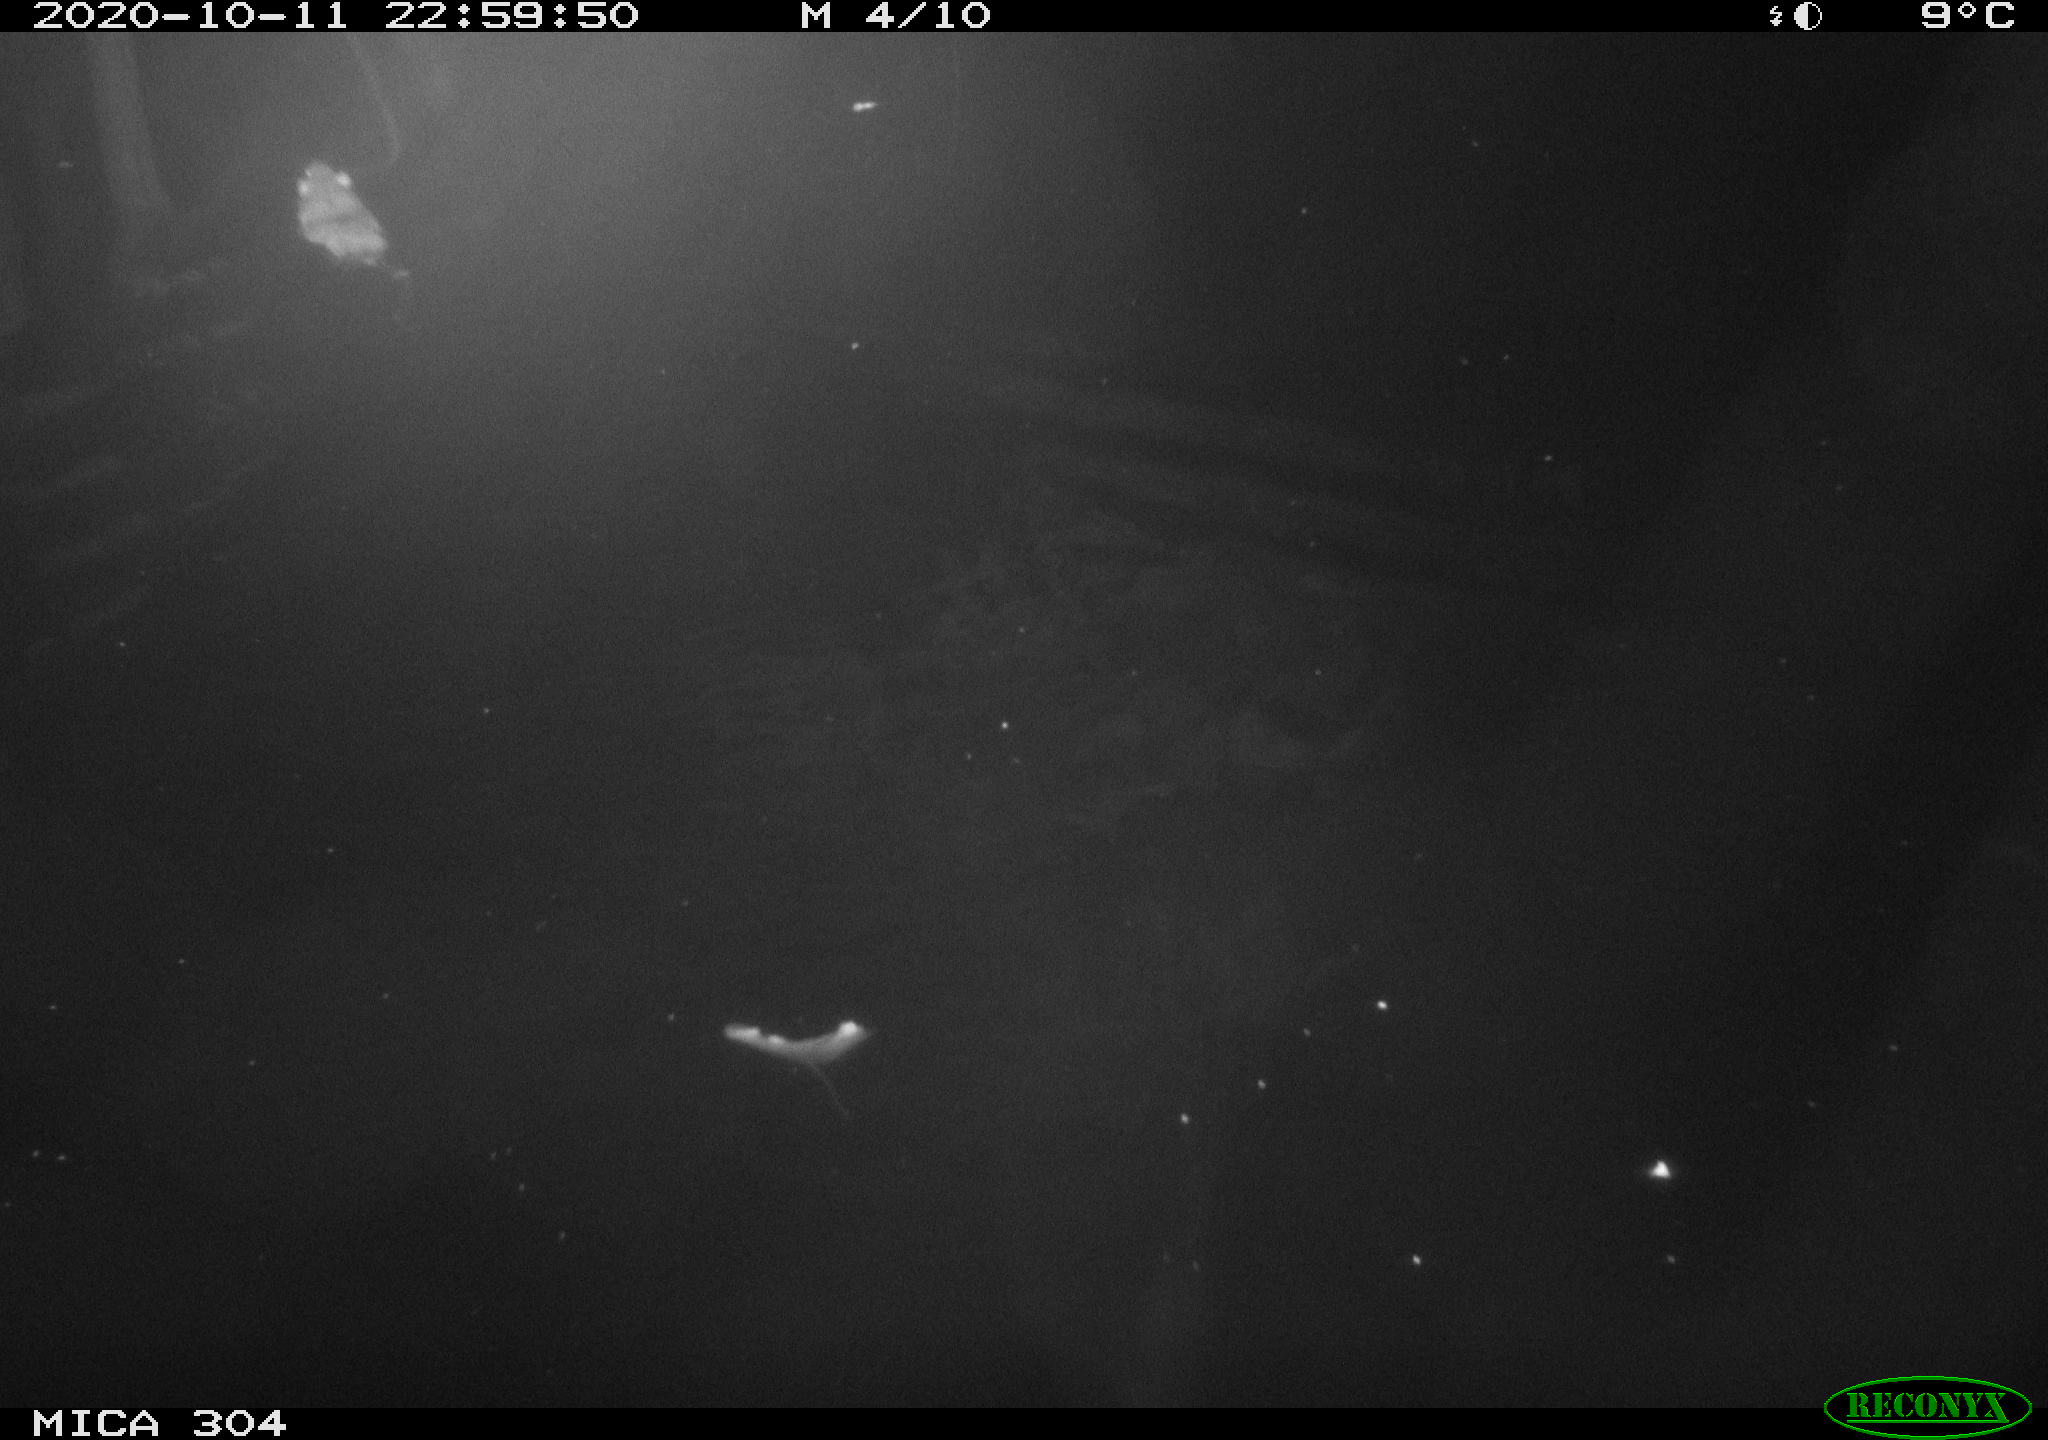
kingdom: Animalia
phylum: Chordata
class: Mammalia
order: Rodentia
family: Muridae
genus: Rattus
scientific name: Rattus norvegicus
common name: Brown rat
